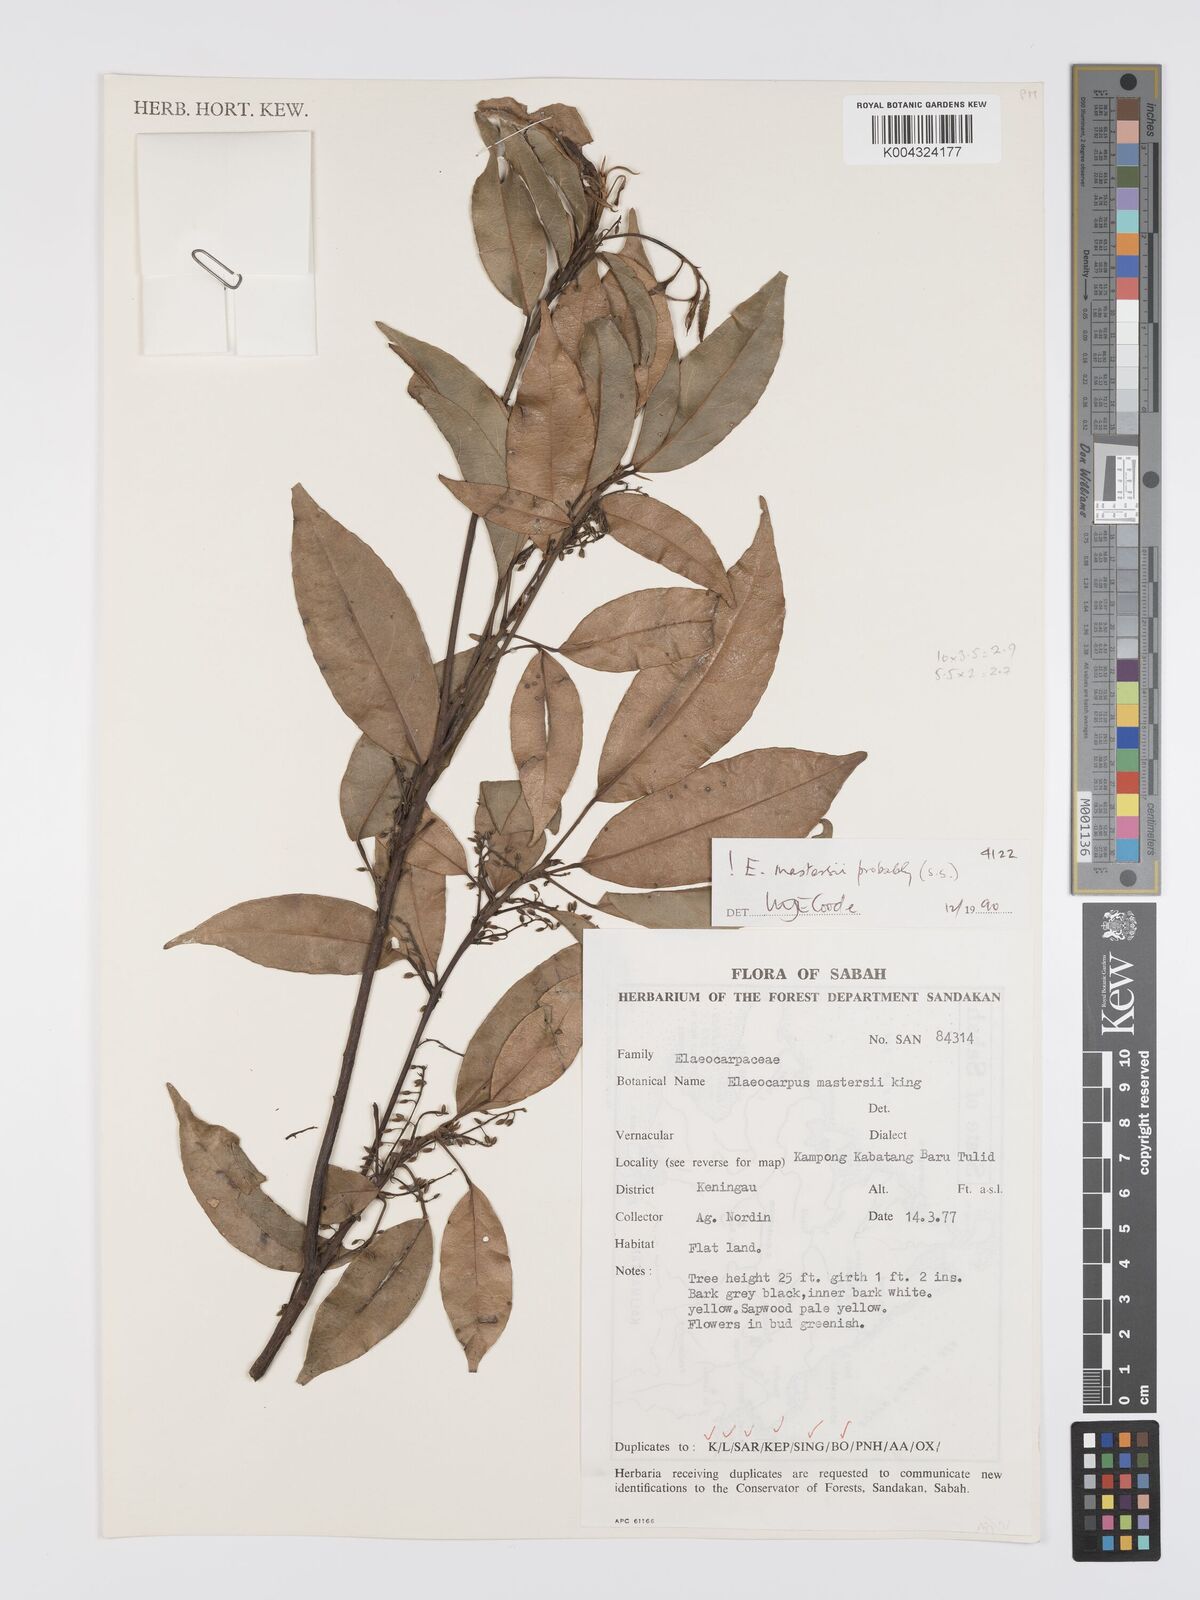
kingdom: Plantae
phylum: Tracheophyta
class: Magnoliopsida
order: Oxalidales
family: Elaeocarpaceae
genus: Elaeocarpus
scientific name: Elaeocarpus mastersii
